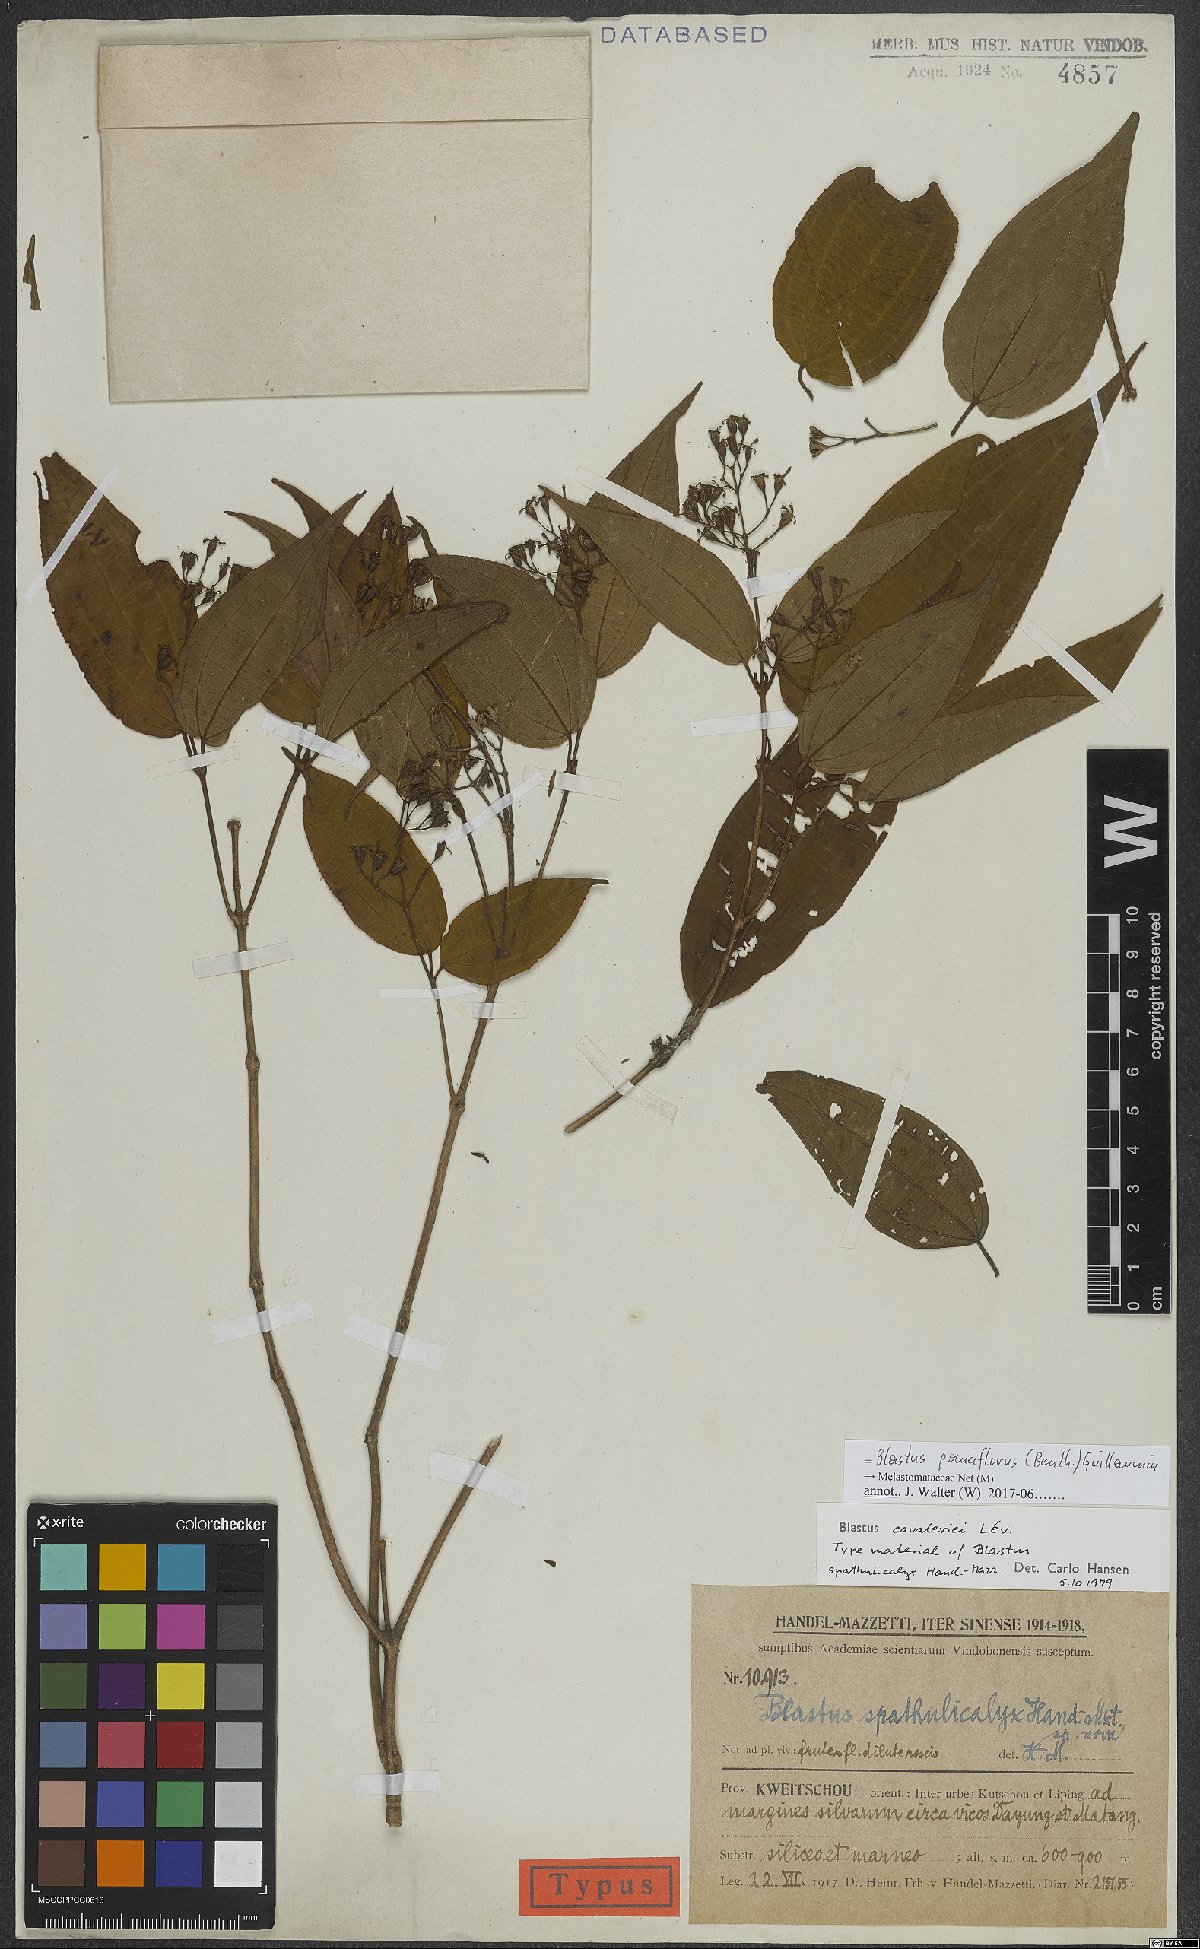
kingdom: Plantae
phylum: Tracheophyta
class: Magnoliopsida
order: Myrtales
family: Melastomataceae
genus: Blastus
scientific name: Blastus pauciflorus
